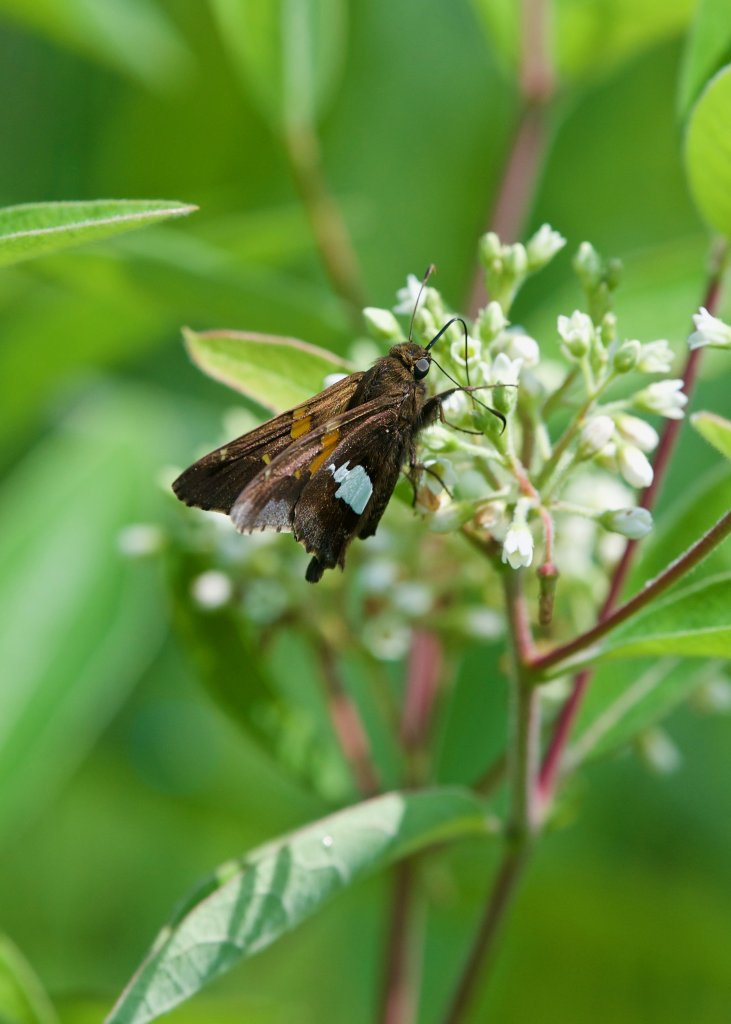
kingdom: Animalia
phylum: Arthropoda
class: Insecta
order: Lepidoptera
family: Hesperiidae
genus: Epargyreus
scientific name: Epargyreus clarus
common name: Silver-spotted Skipper
